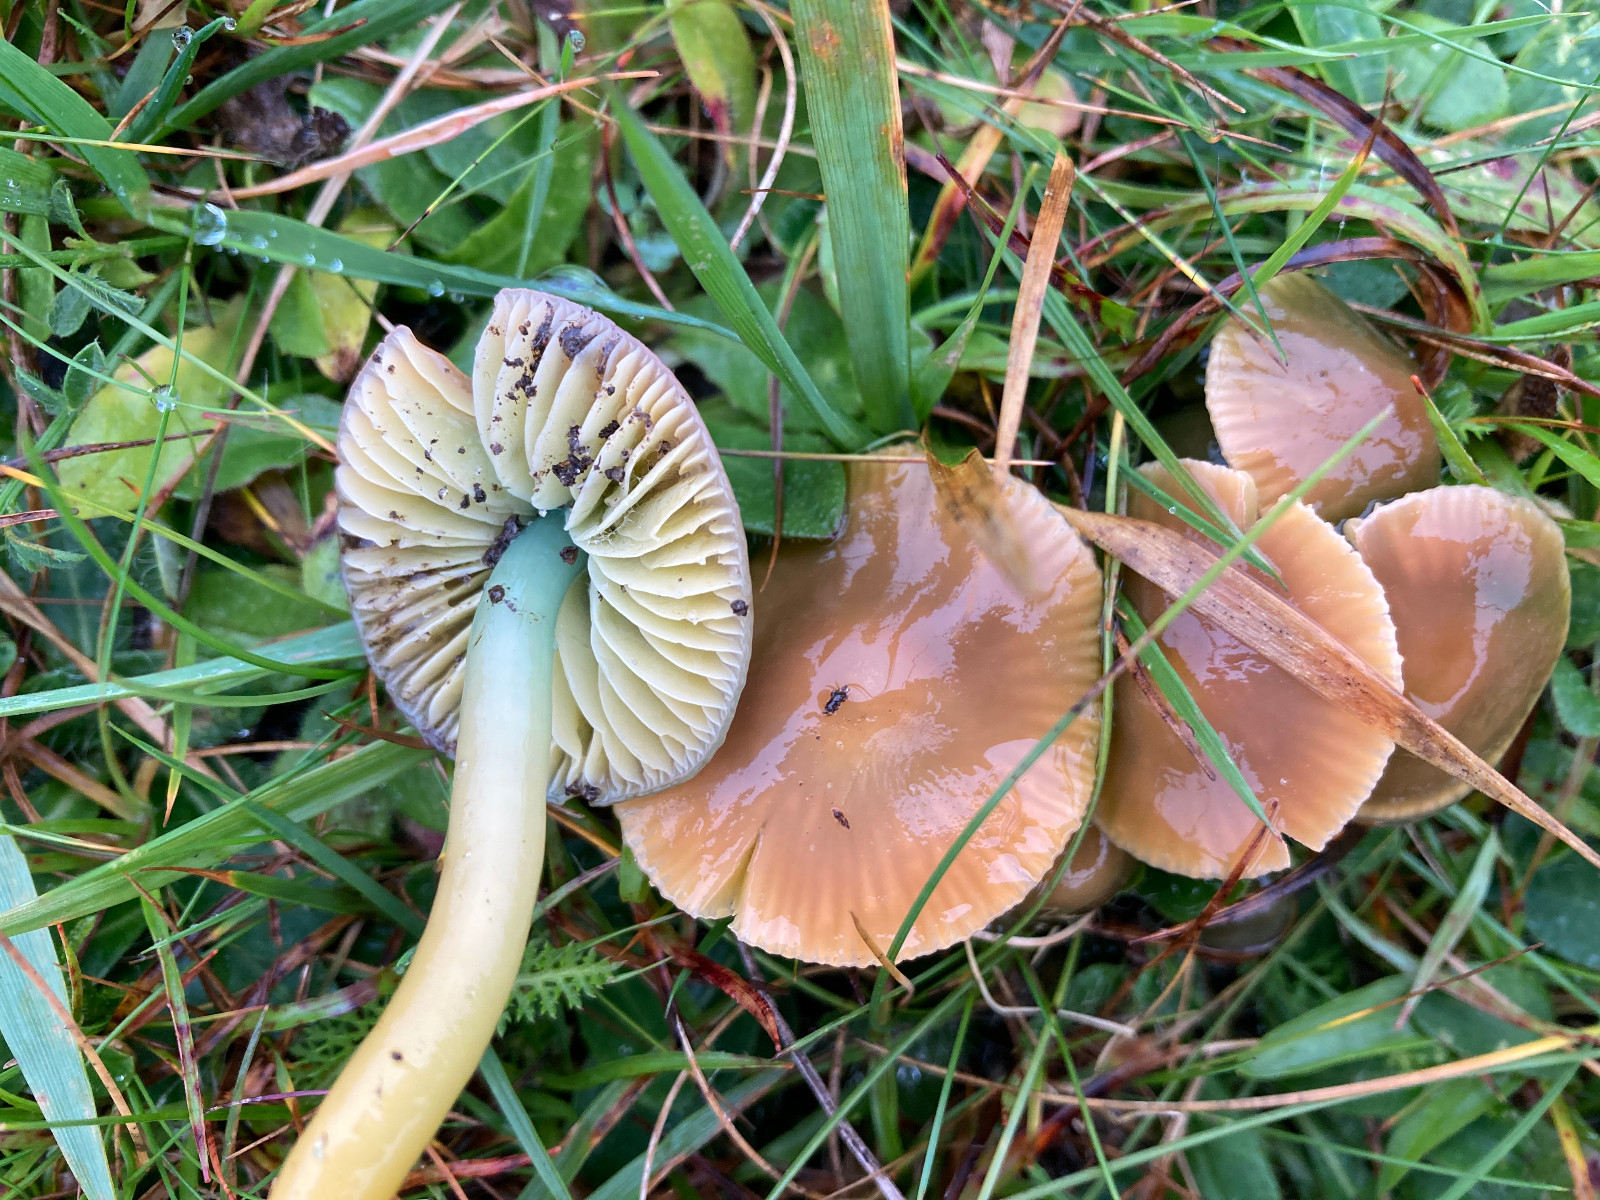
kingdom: Fungi
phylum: Basidiomycota
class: Agaricomycetes
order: Agaricales
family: Hygrophoraceae
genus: Gliophorus
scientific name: Gliophorus psittacinus
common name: papegøje-vokshat
